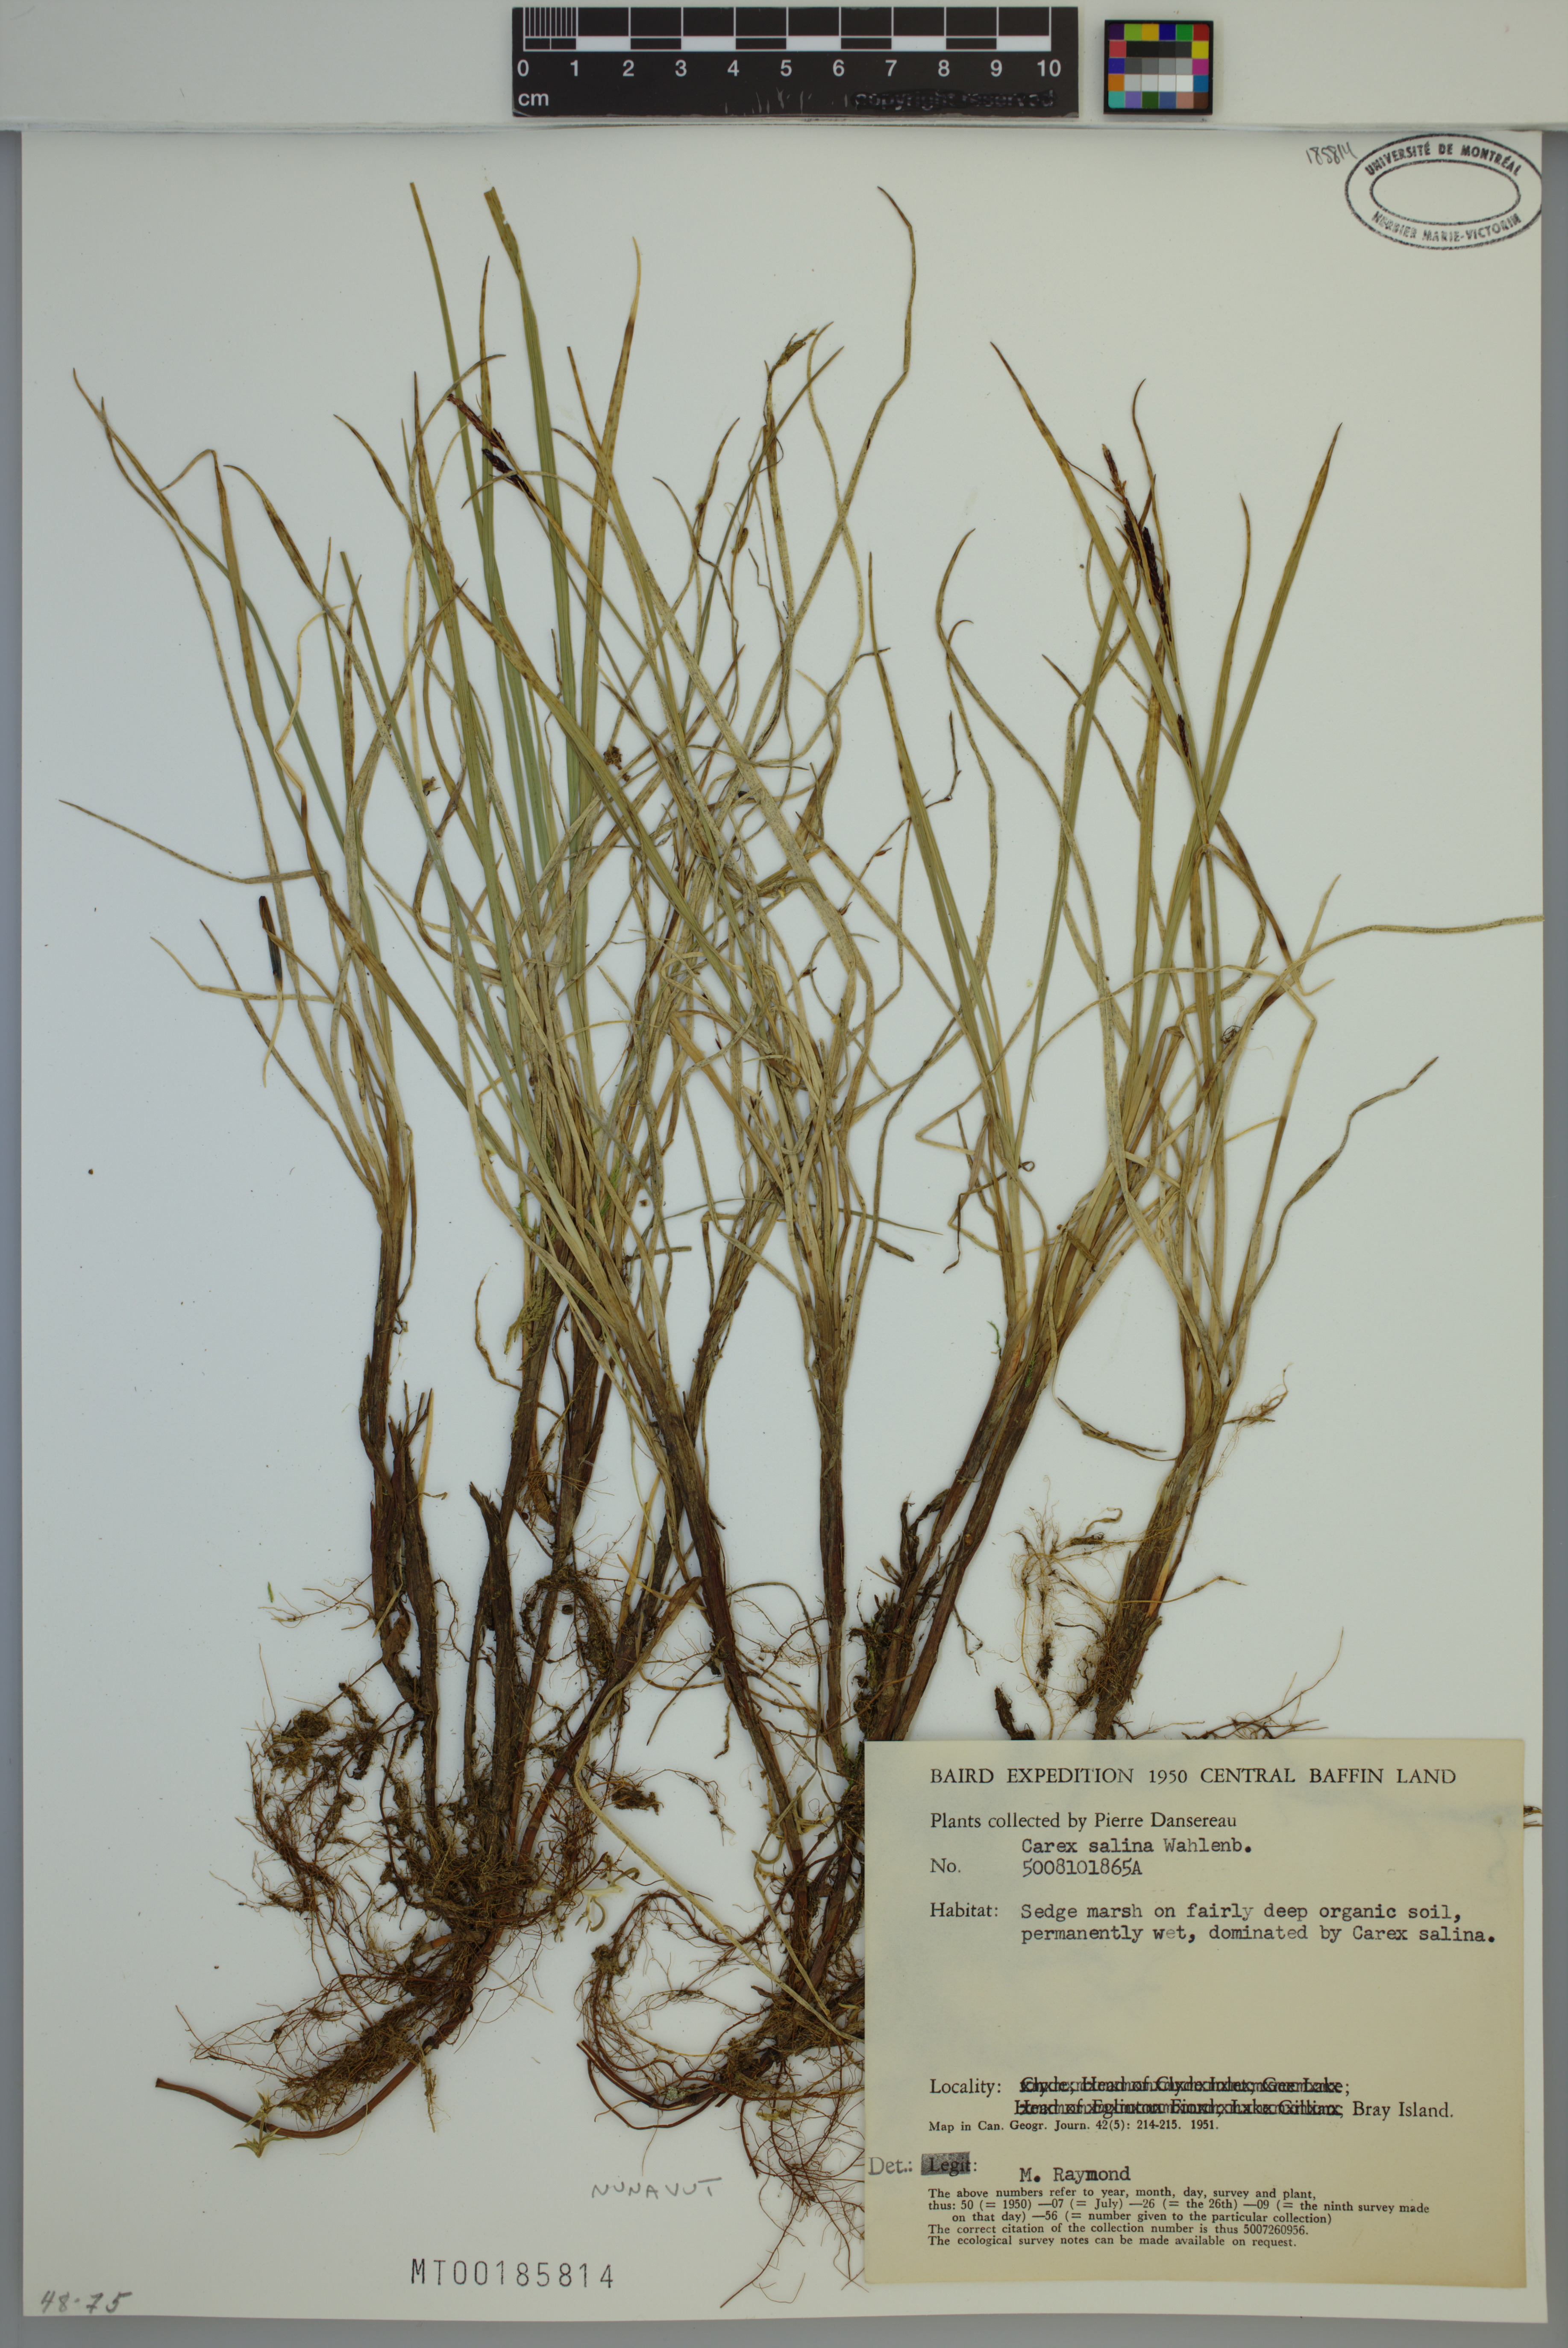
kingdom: Plantae
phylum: Tracheophyta
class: Liliopsida
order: Poales
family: Cyperaceae
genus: Carex
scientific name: Carex salina
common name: Saltmarsh sedge
